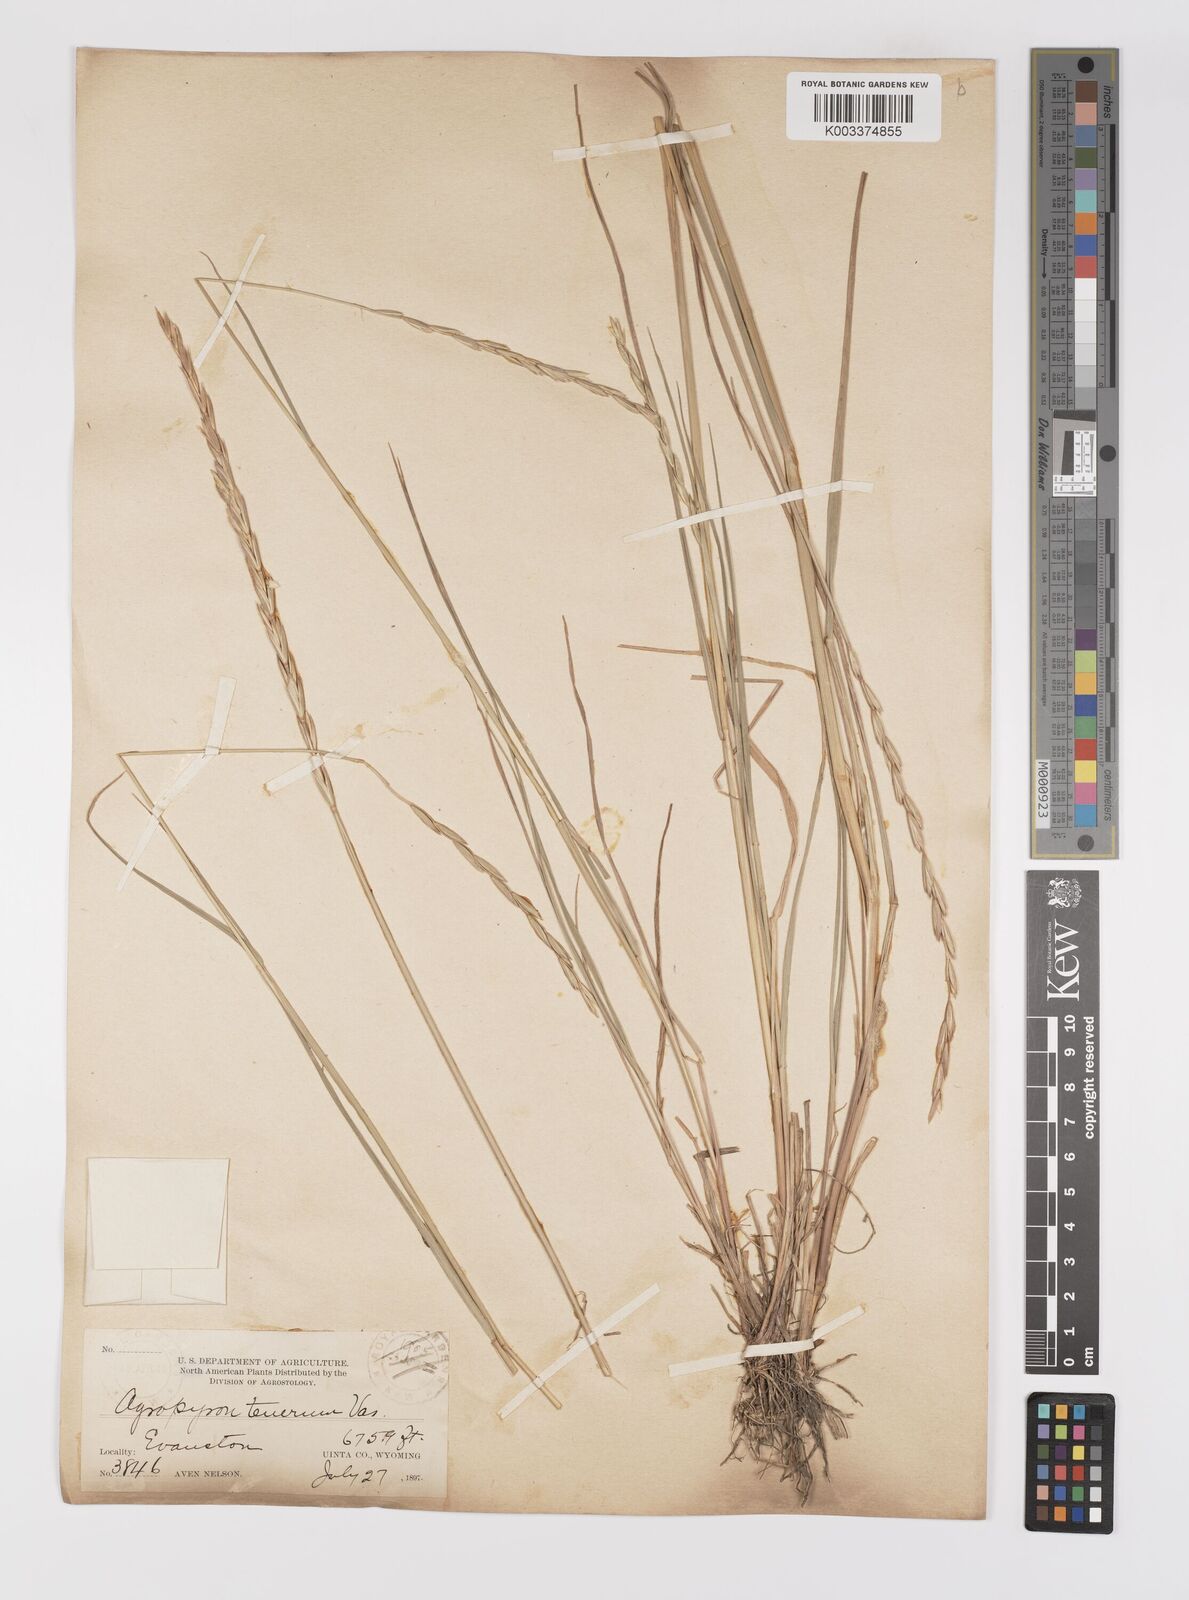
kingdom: Plantae
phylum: Tracheophyta
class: Liliopsida
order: Poales
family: Poaceae
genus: Elymus
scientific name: Elymus violaceus
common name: Arctic wheatgrass
